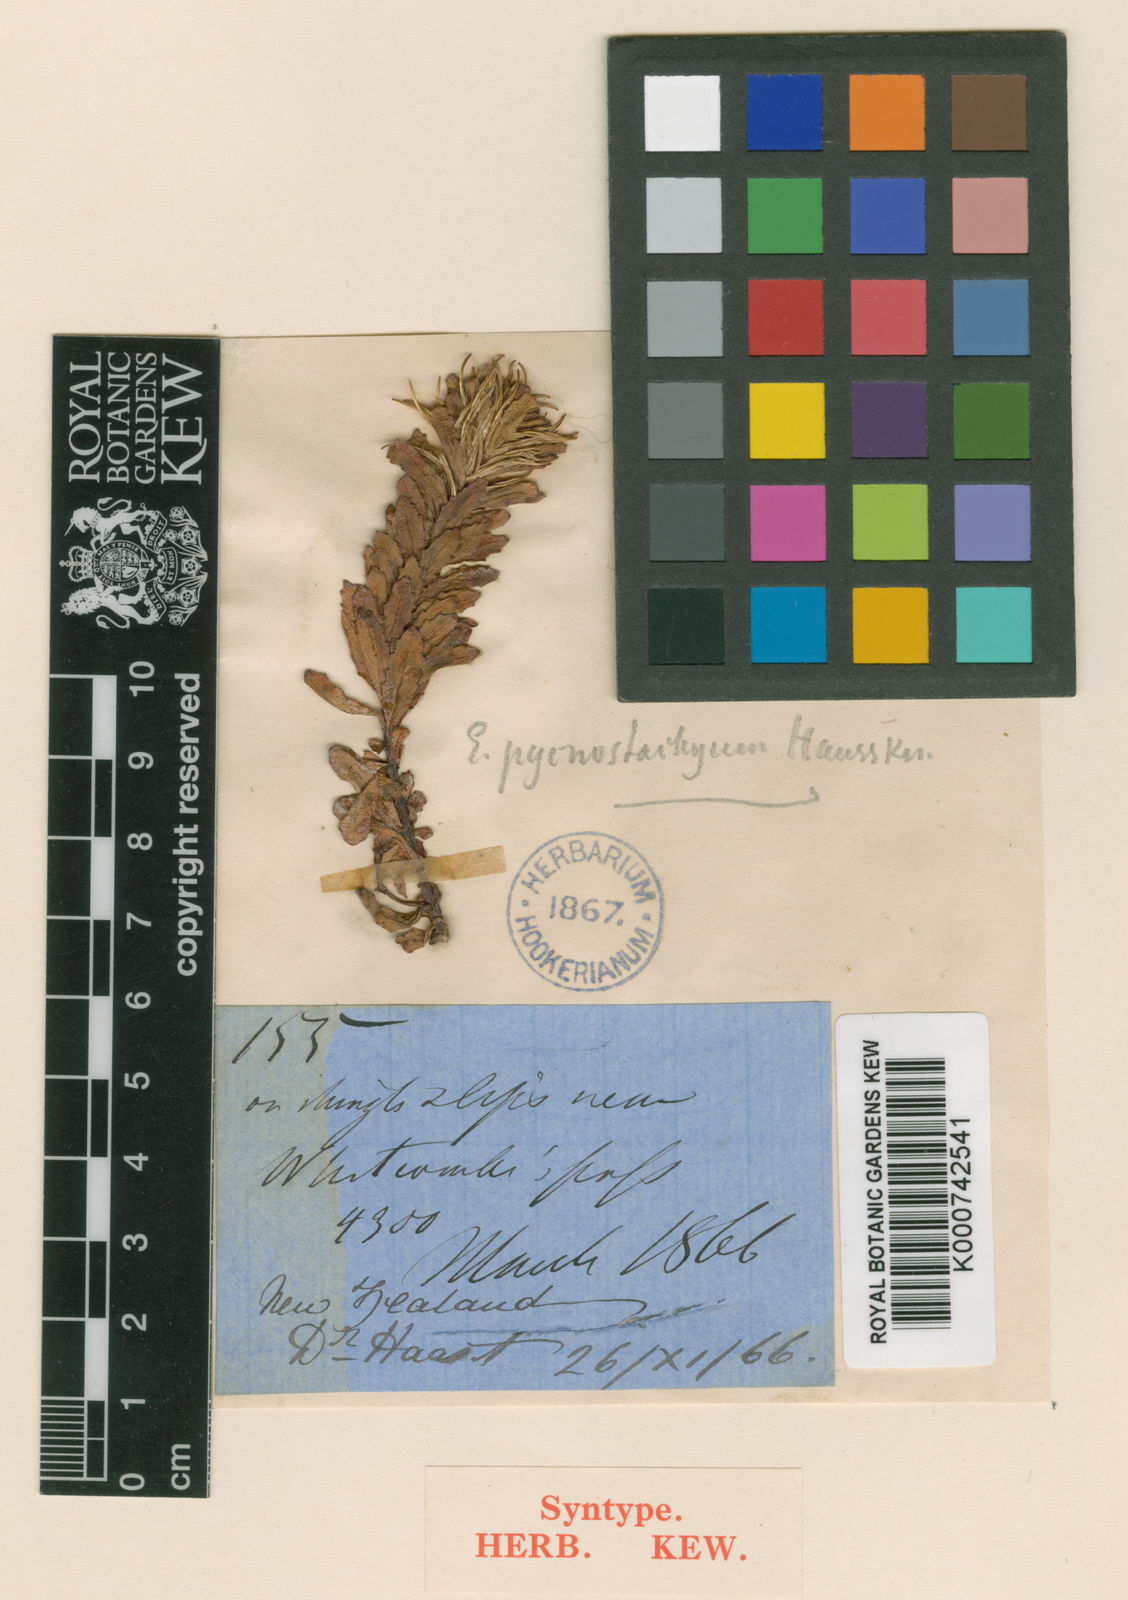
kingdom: Plantae
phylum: Tracheophyta
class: Magnoliopsida
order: Myrtales
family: Onagraceae
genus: Epilobium
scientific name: Epilobium pycnostachyum
